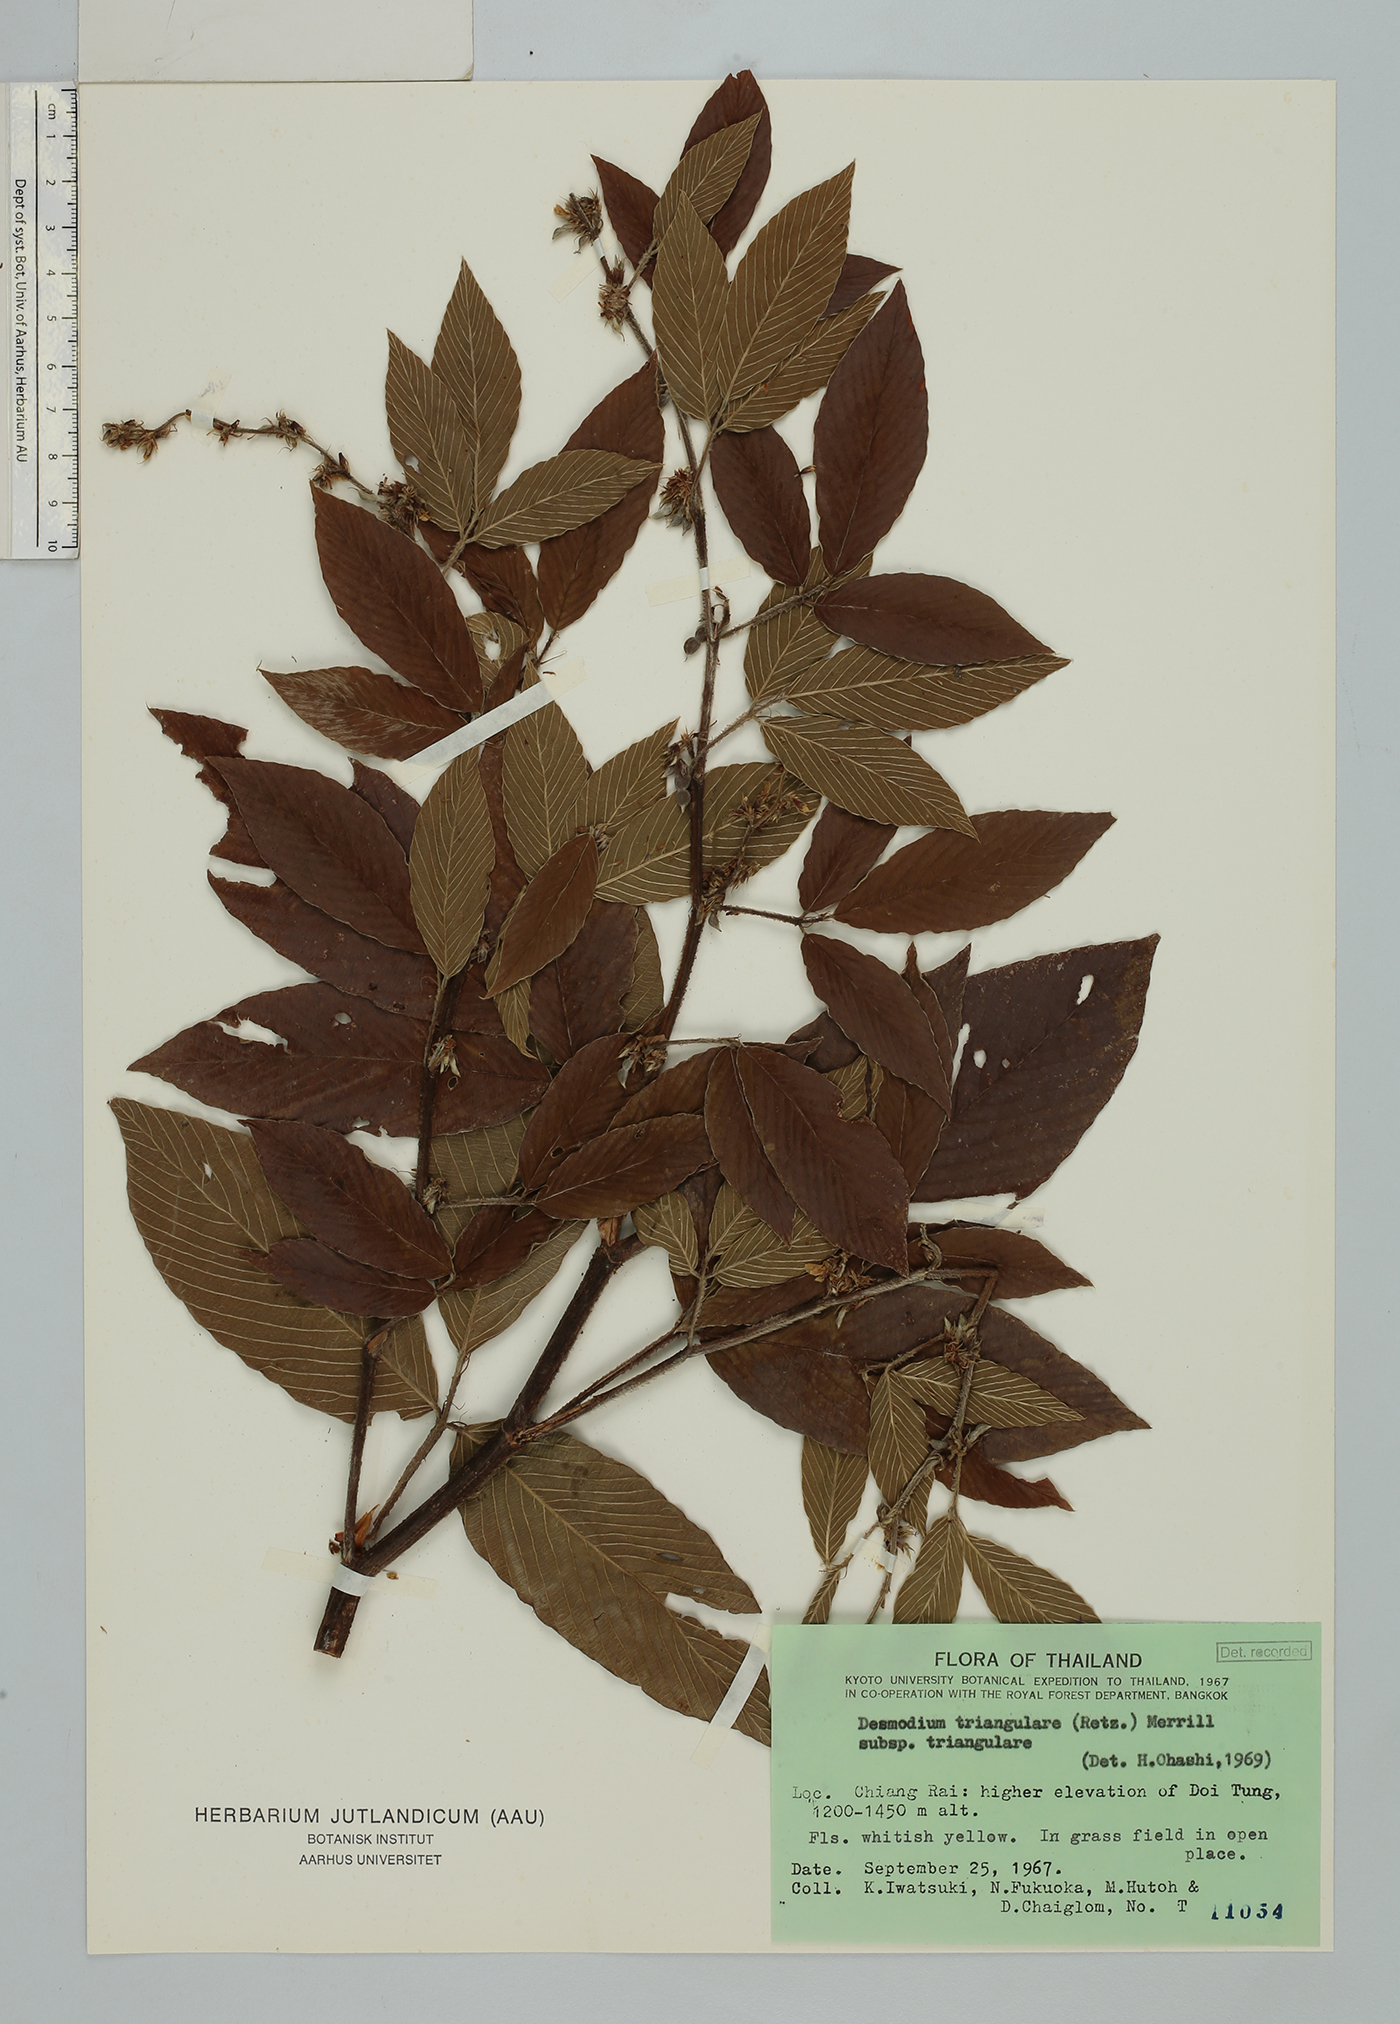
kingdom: Plantae
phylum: Tracheophyta
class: Magnoliopsida
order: Fabales
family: Fabaceae
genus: Dendrolobium
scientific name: Dendrolobium triangulare
